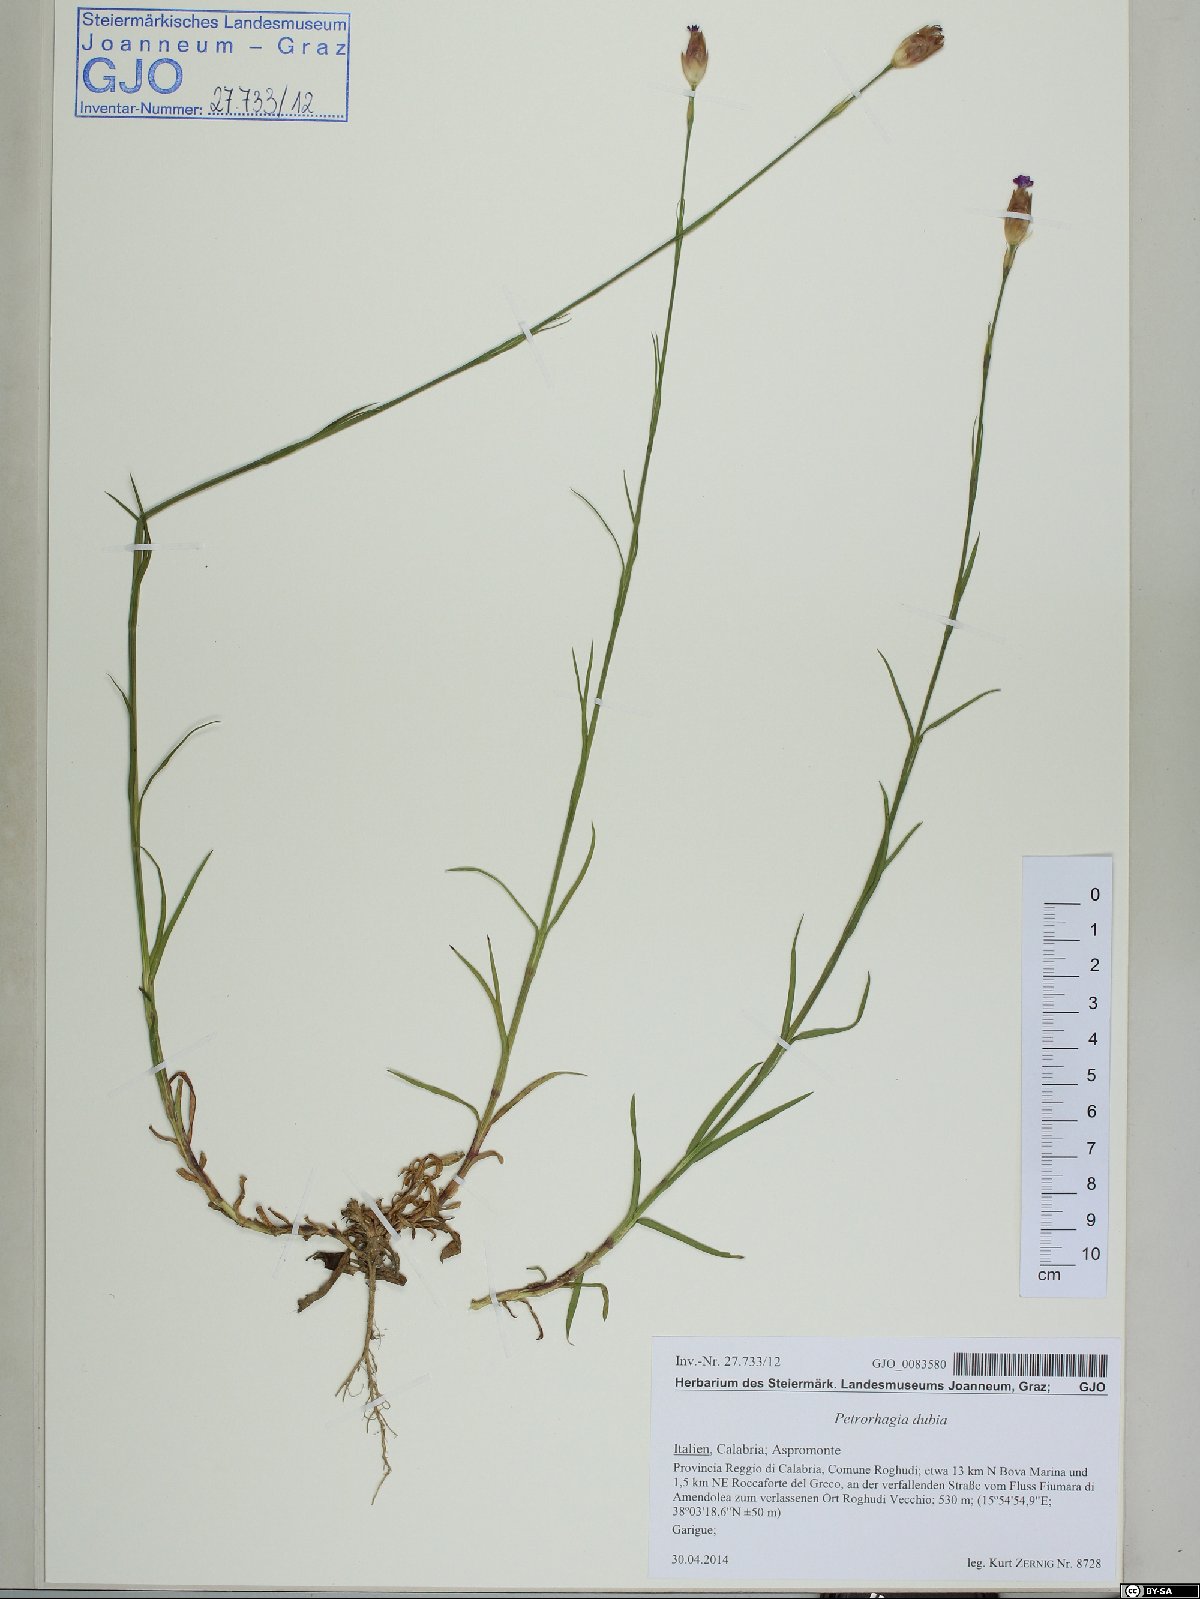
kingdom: Plantae
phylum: Tracheophyta
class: Magnoliopsida
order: Caryophyllales
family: Caryophyllaceae
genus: Petrorhagia
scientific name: Petrorhagia dubia
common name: Hairypink
